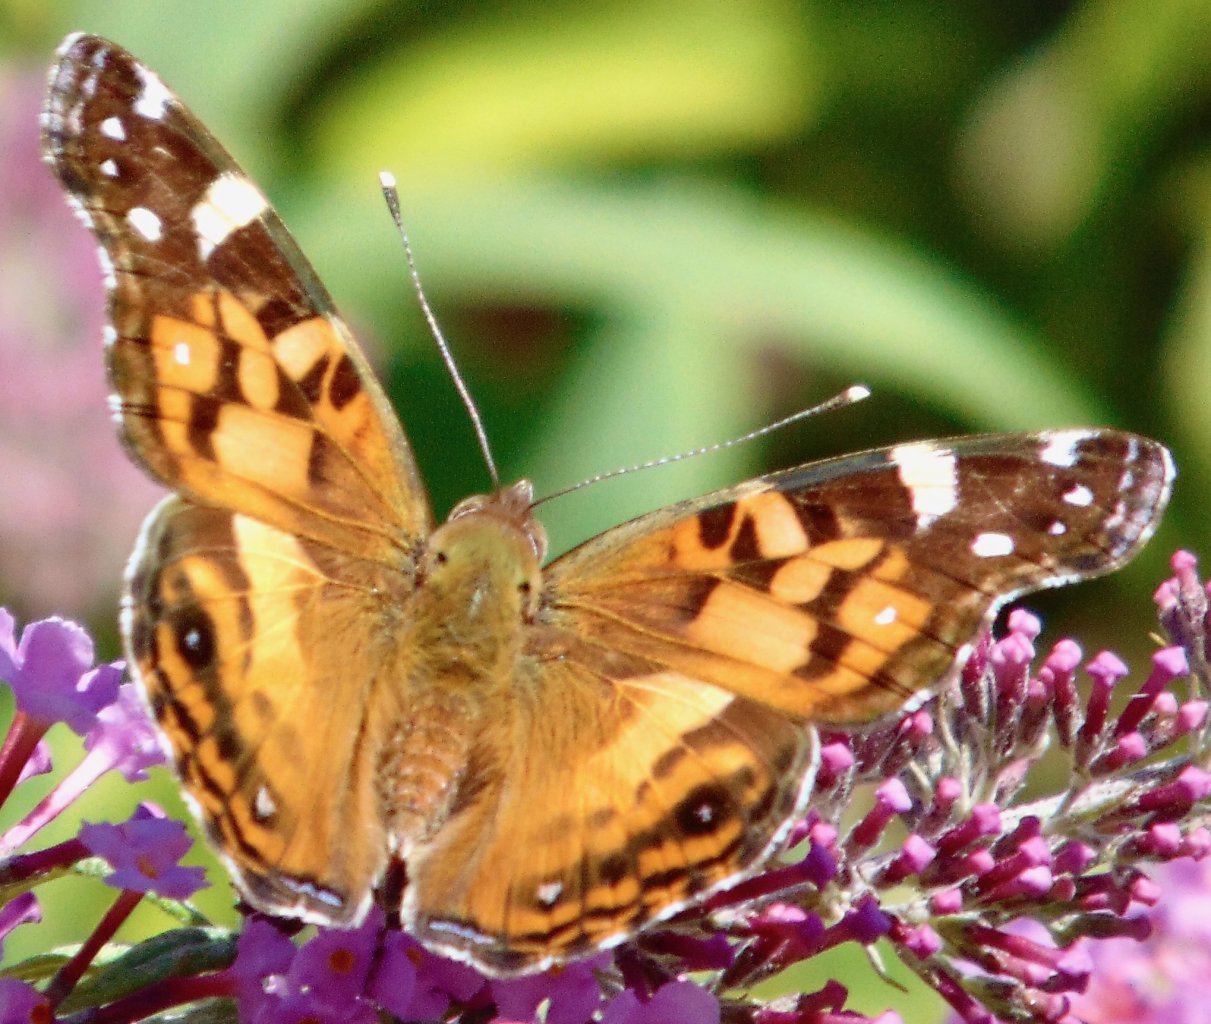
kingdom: Animalia
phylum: Arthropoda
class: Insecta
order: Lepidoptera
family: Nymphalidae
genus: Vanessa
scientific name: Vanessa virginiensis
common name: American Lady
